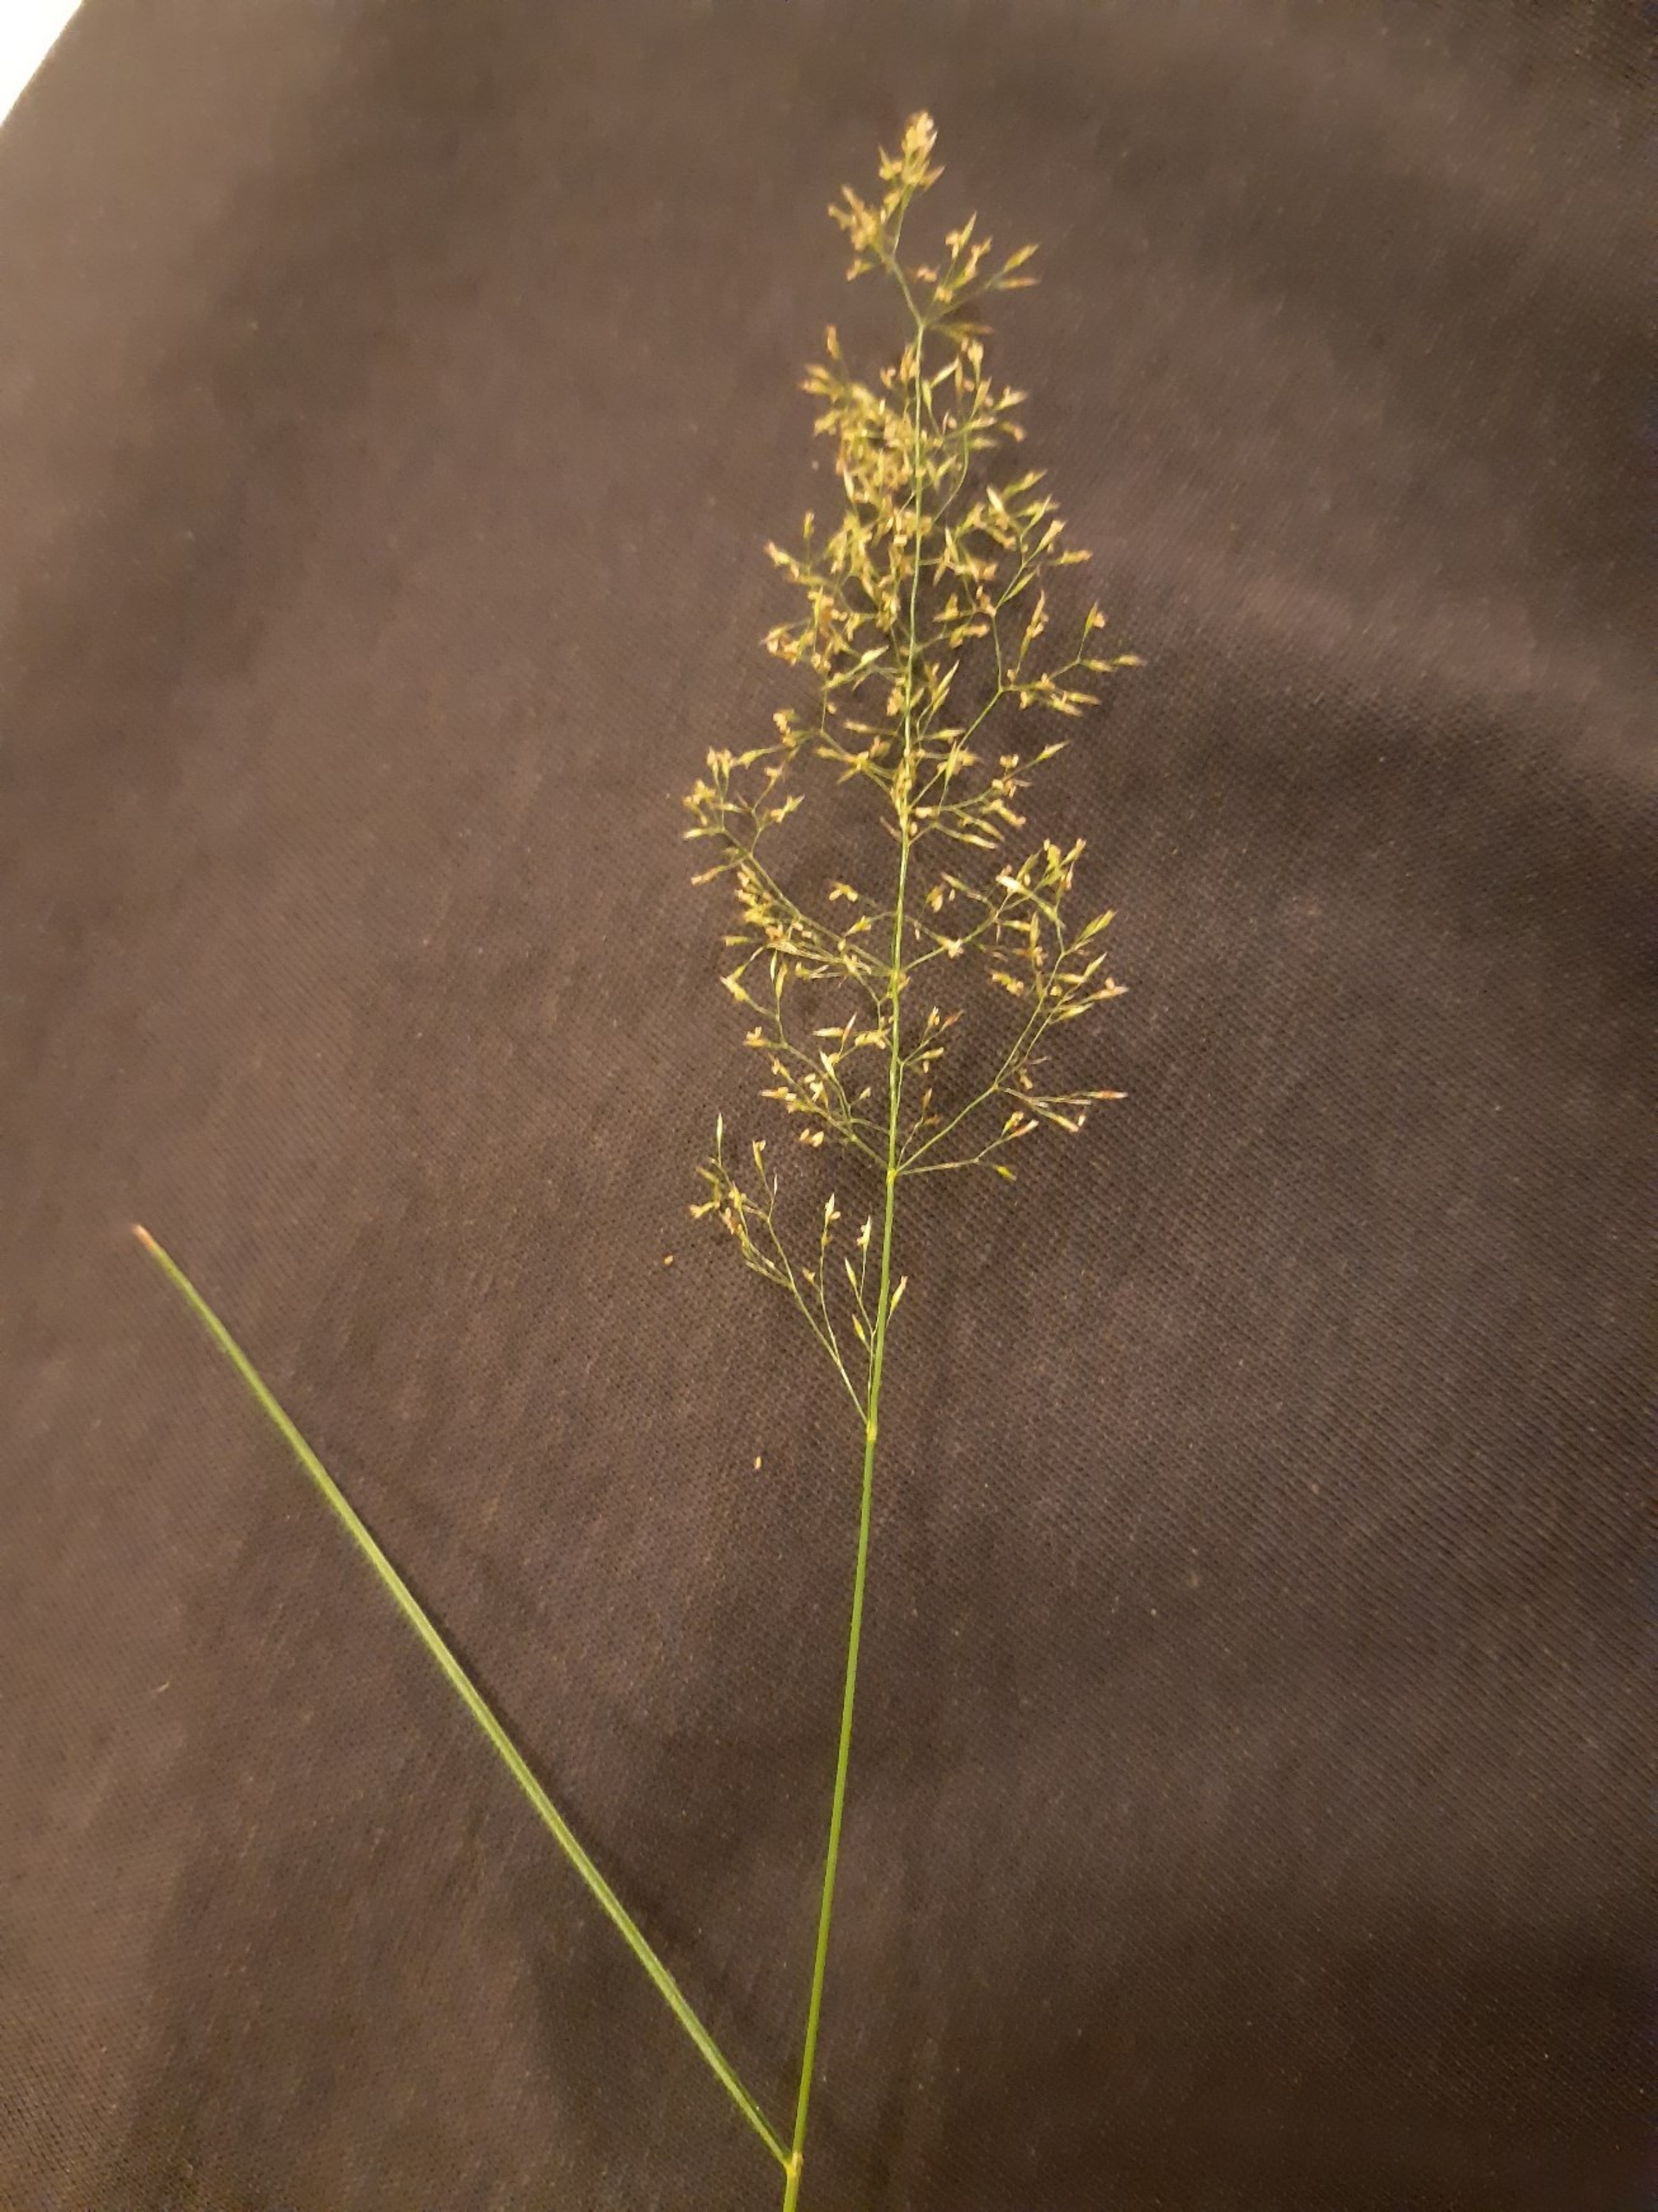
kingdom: Plantae
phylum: Tracheophyta
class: Liliopsida
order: Poales
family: Poaceae
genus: Agrostis
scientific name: Agrostis capillaris
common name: Almindelig hvene
